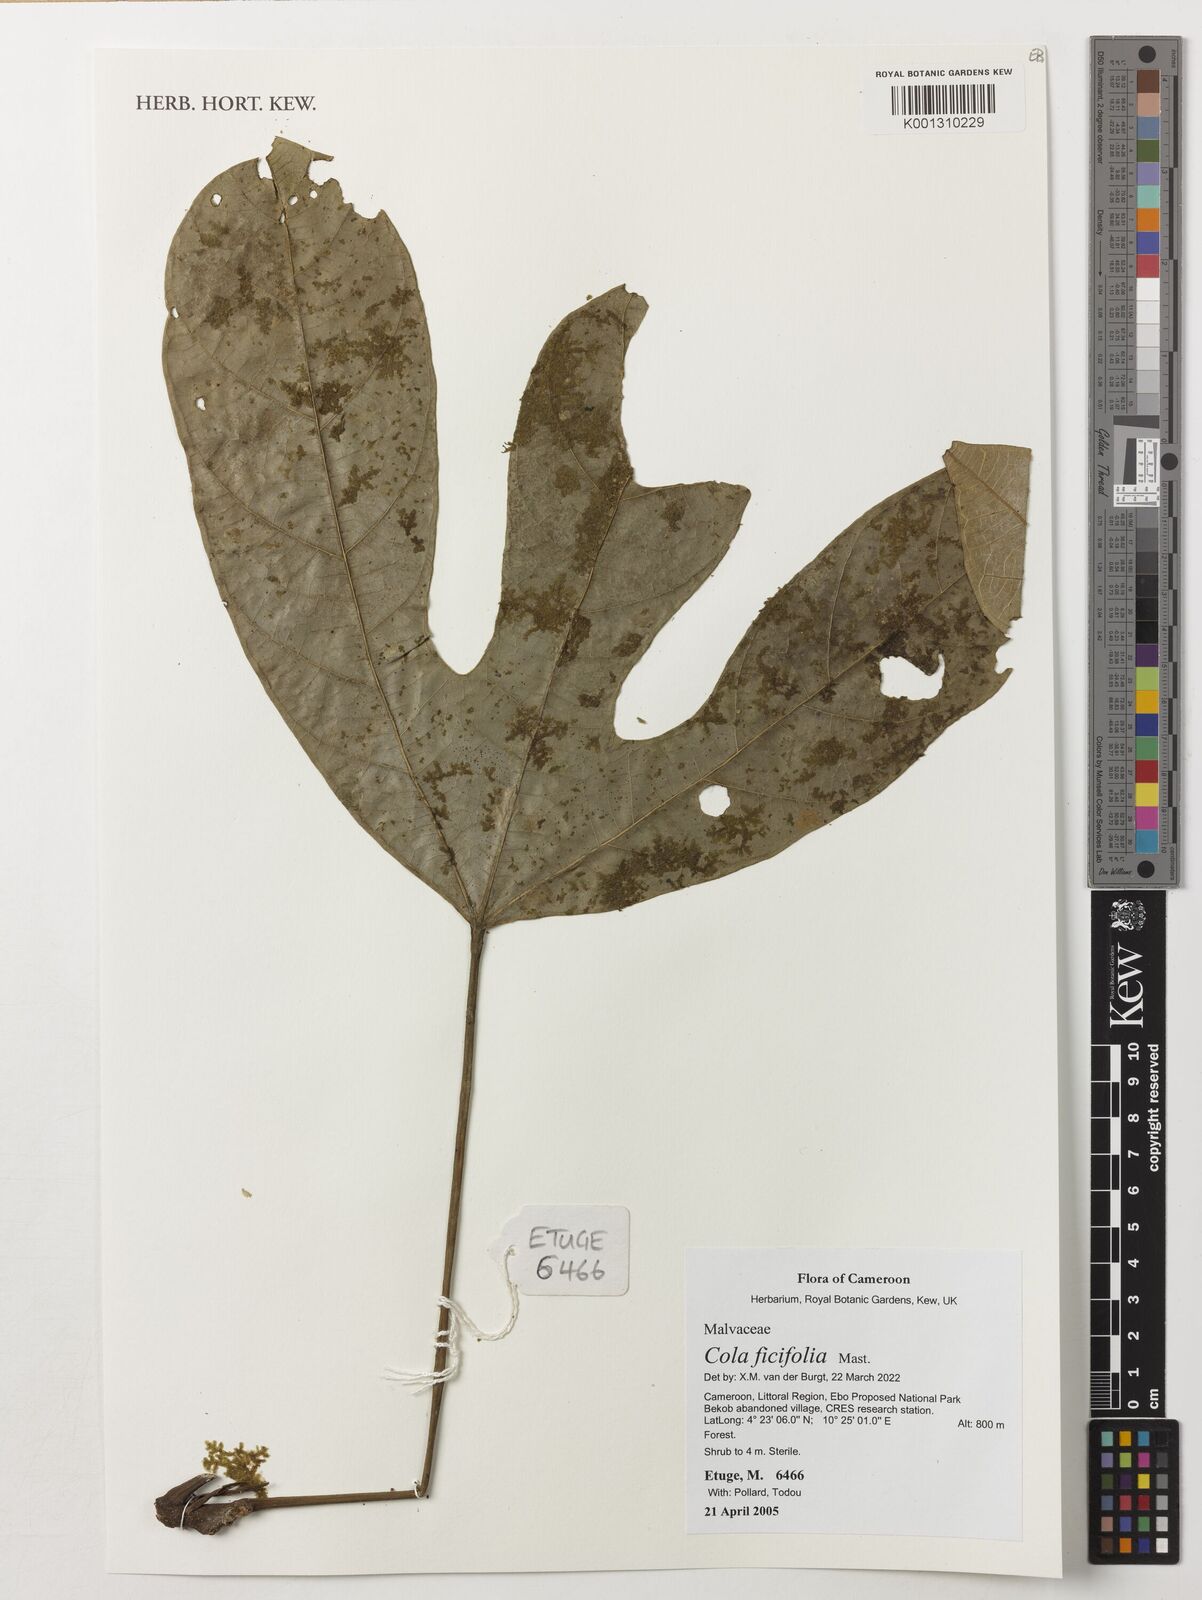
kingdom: Plantae
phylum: Tracheophyta
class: Magnoliopsida
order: Malvales
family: Malvaceae
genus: Cola
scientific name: Cola ficifolia
